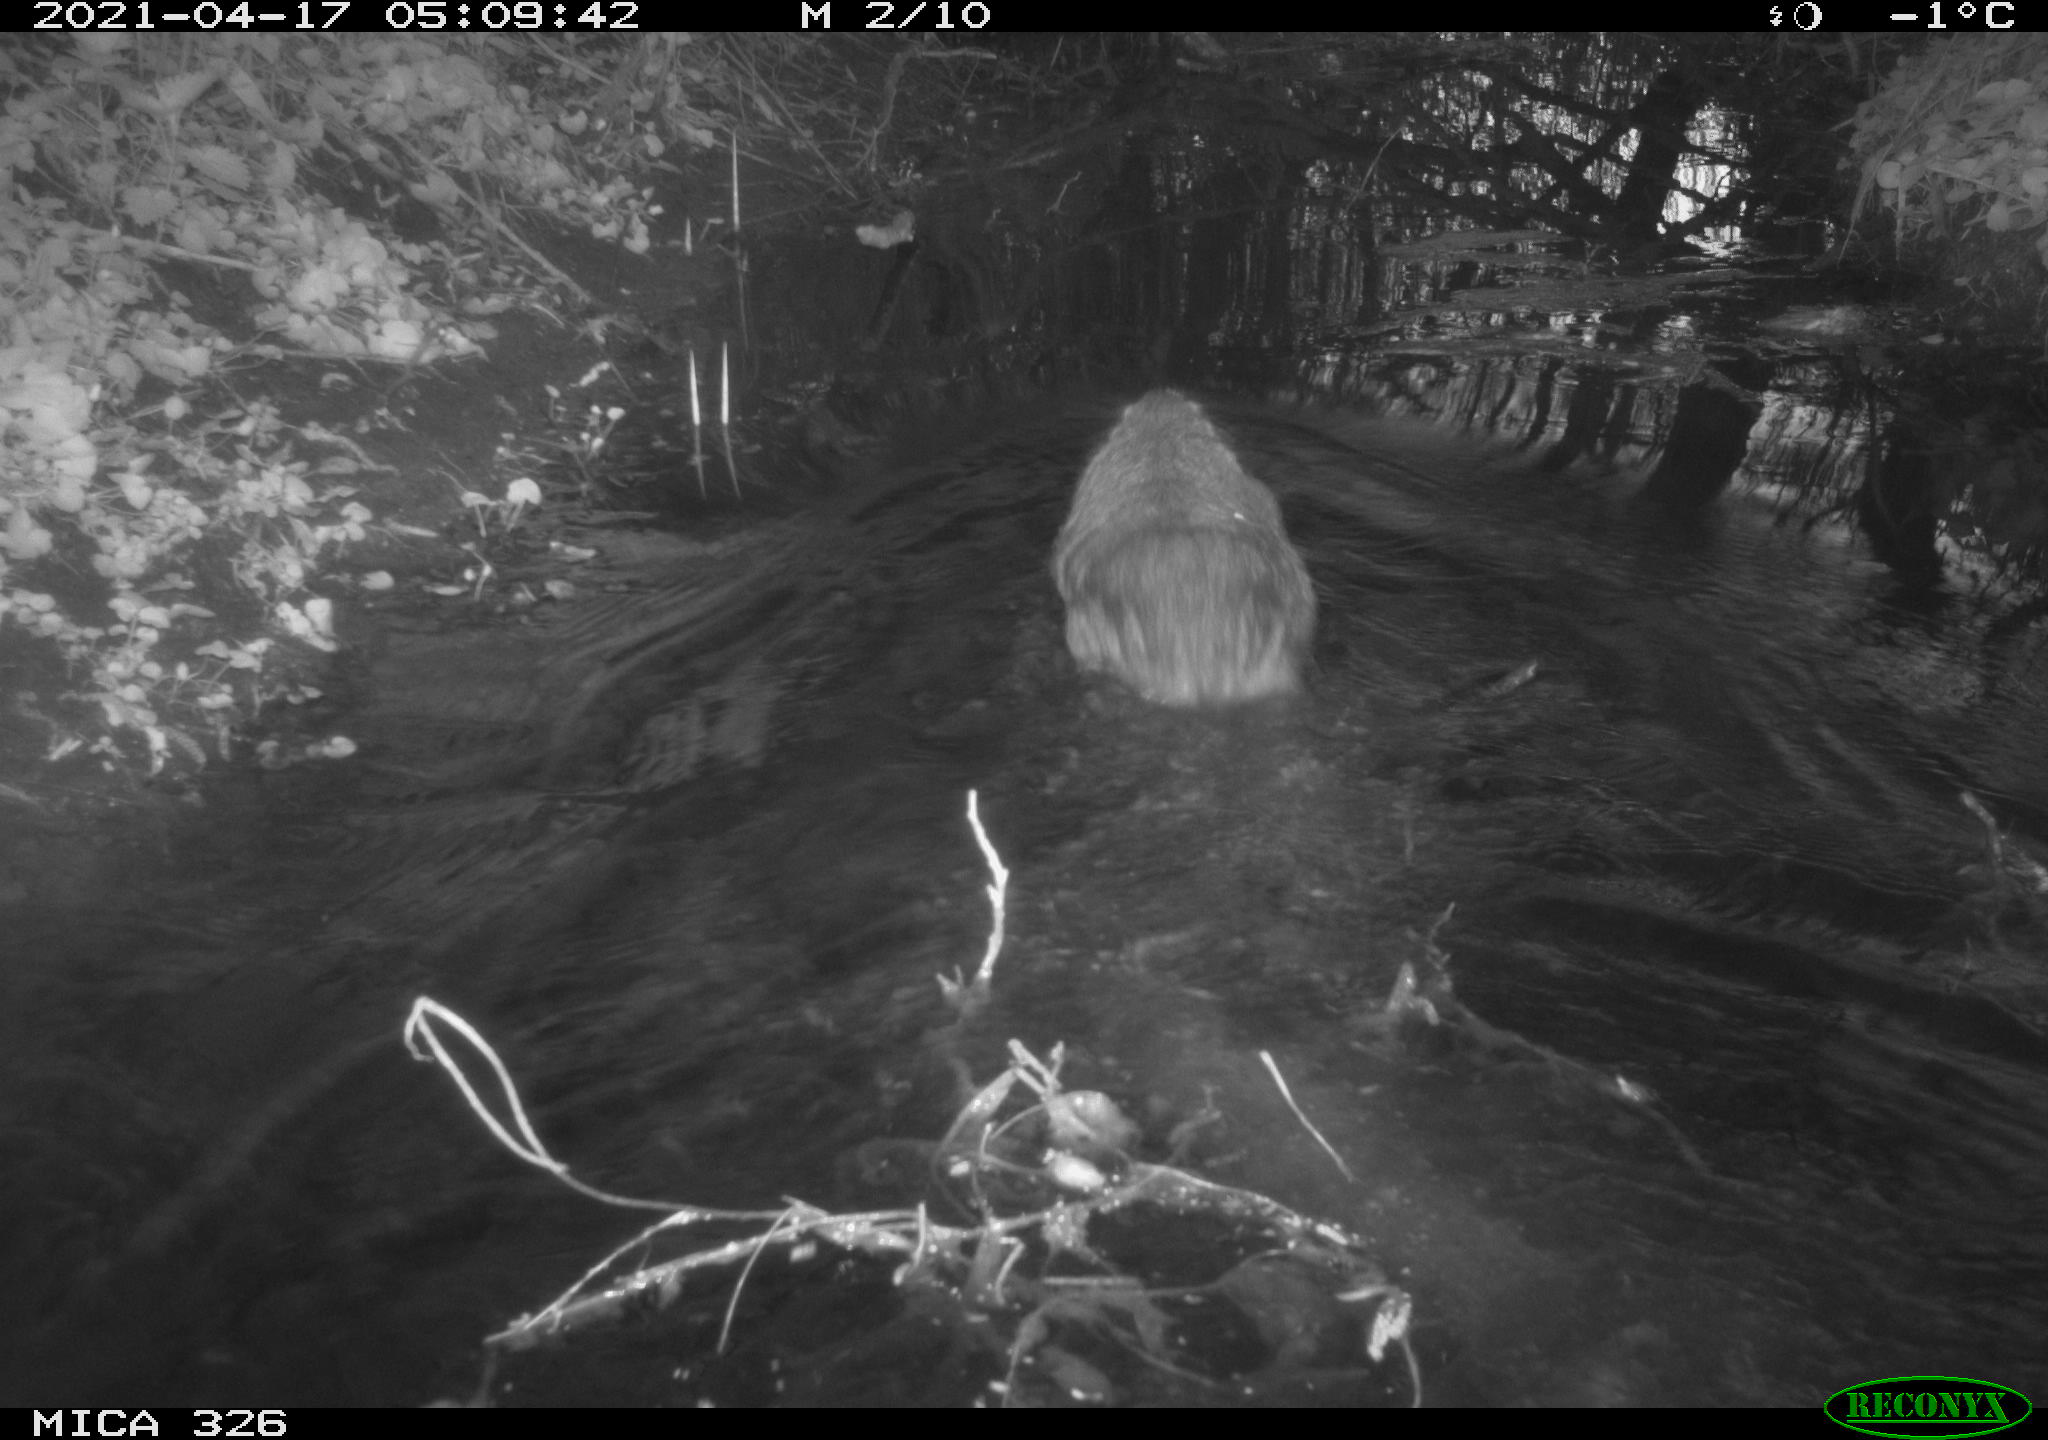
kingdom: Animalia
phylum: Chordata
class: Mammalia
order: Rodentia
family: Myocastoridae
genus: Myocastor
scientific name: Myocastor coypus
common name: Coypu
